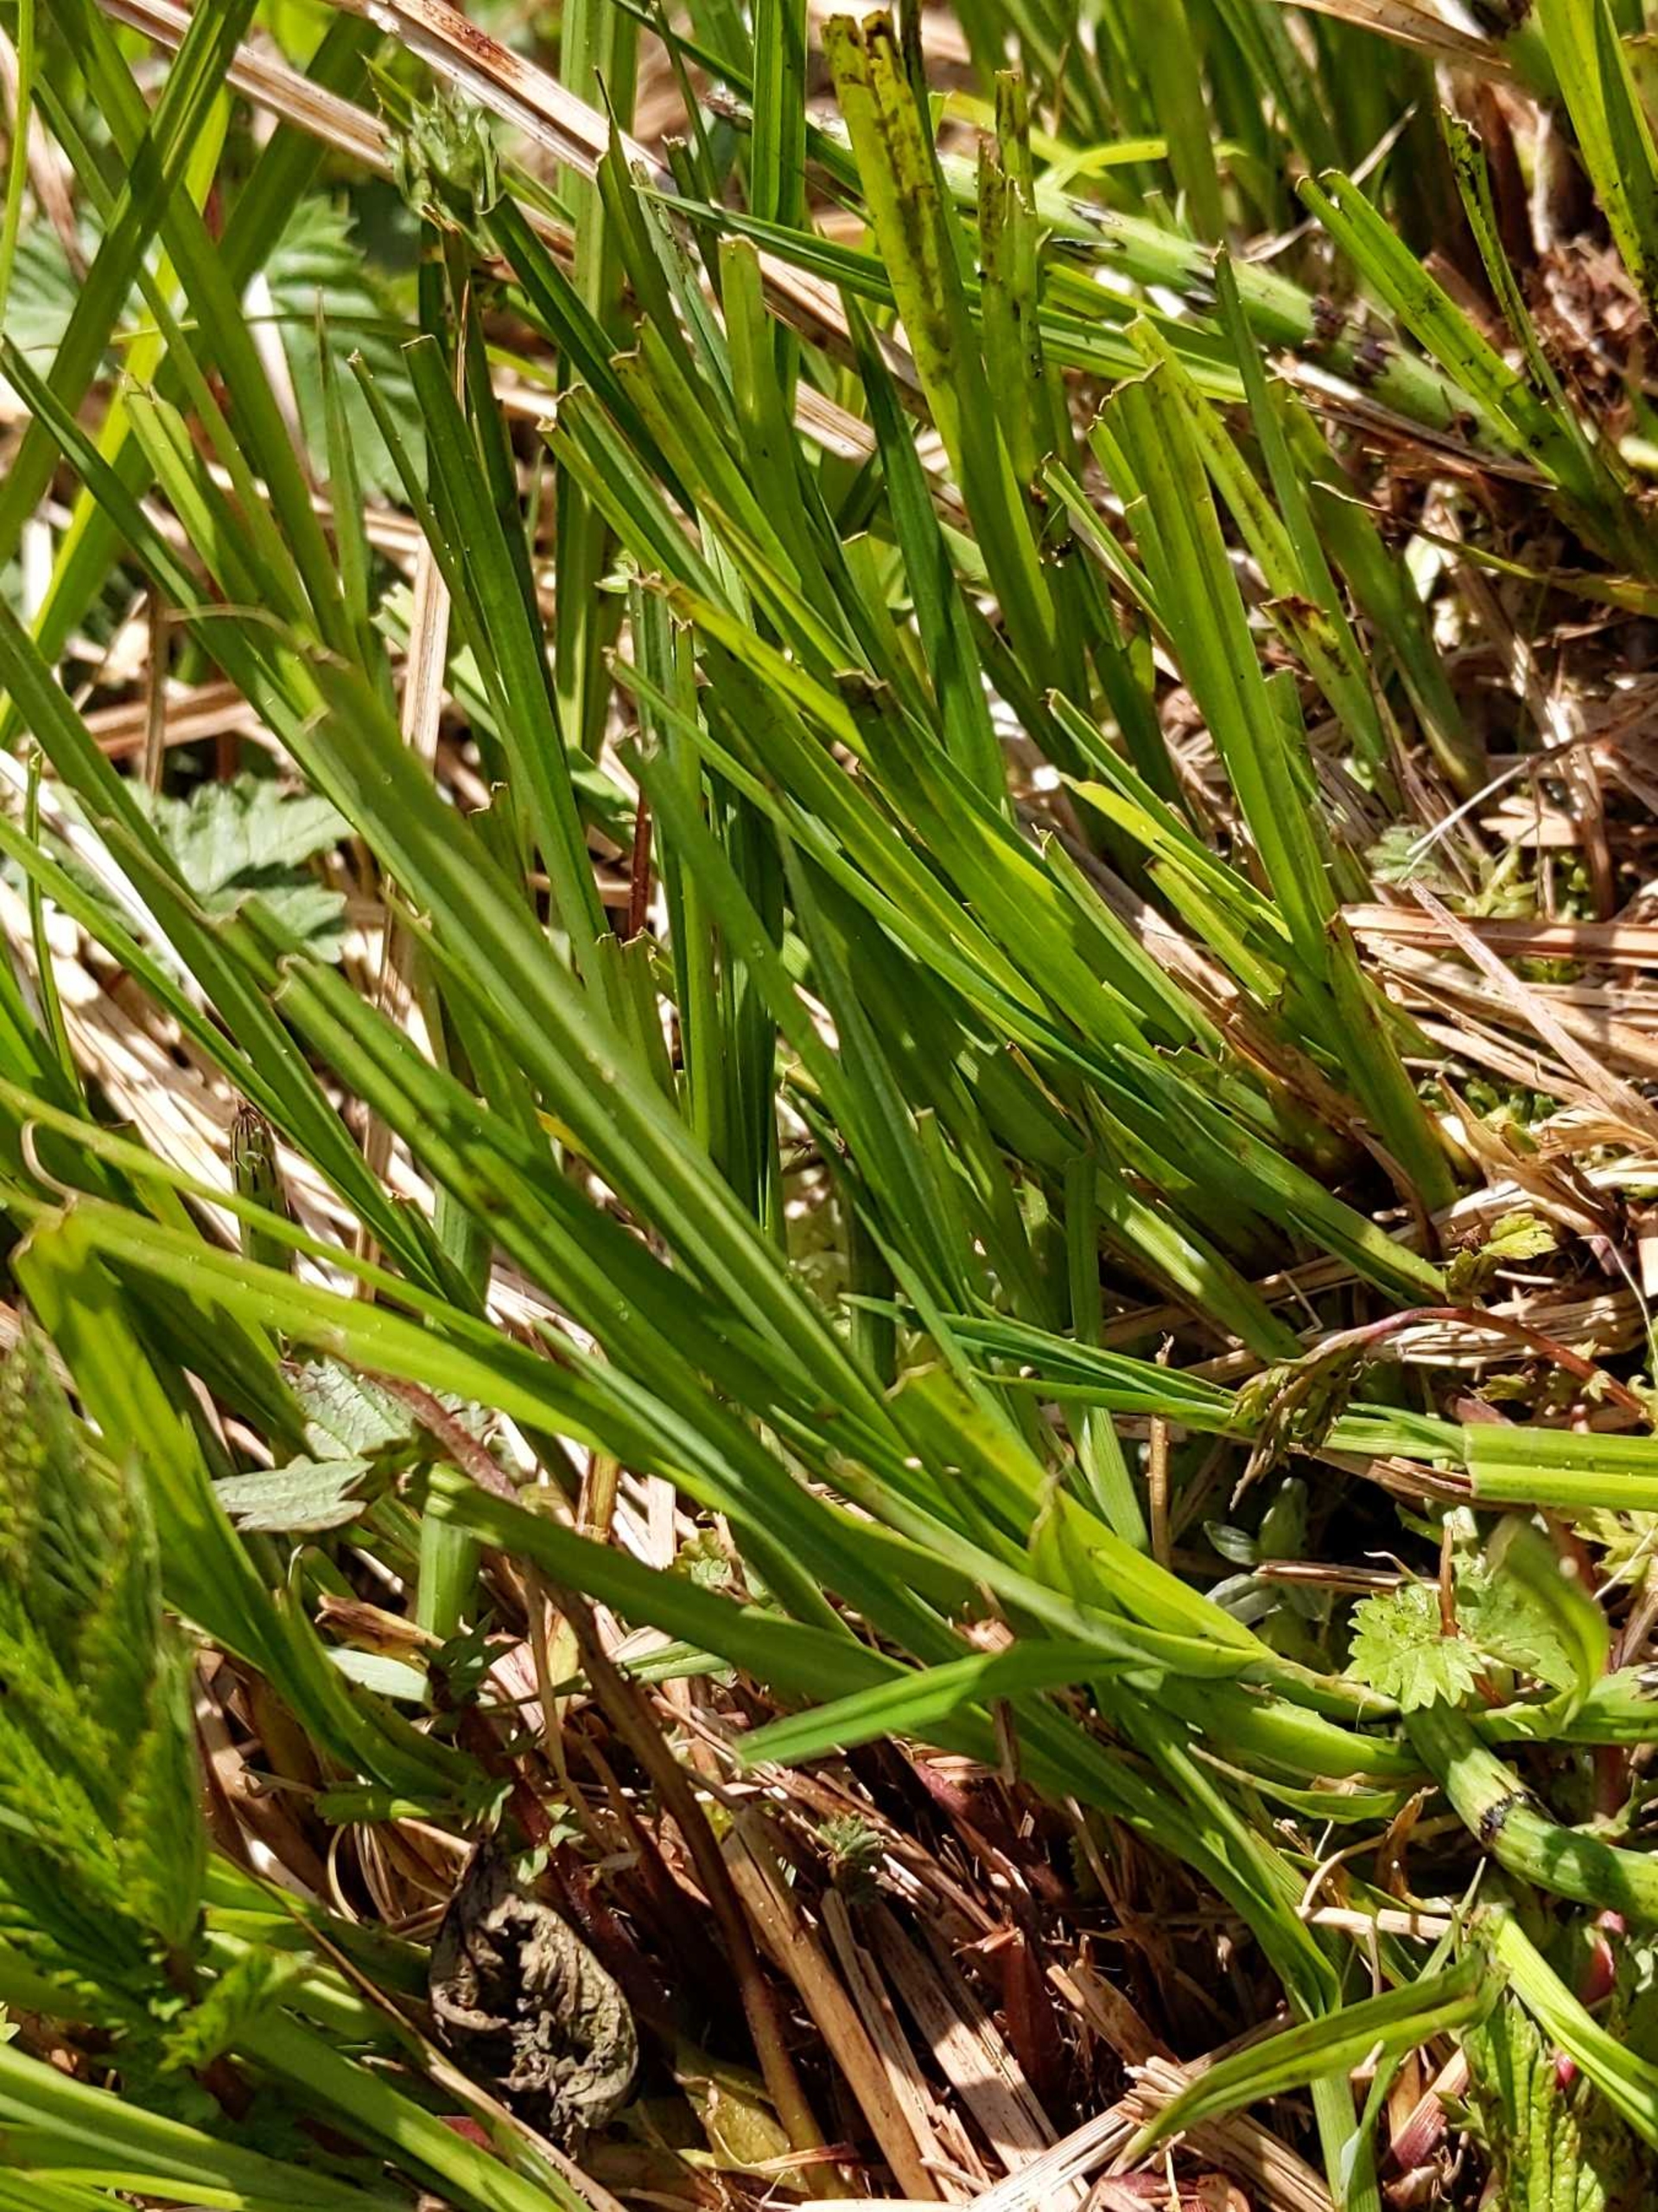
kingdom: Plantae
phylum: Tracheophyta
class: Liliopsida
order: Poales
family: Cyperaceae
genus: Carex
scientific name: Carex cespitosa
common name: Tue-star
